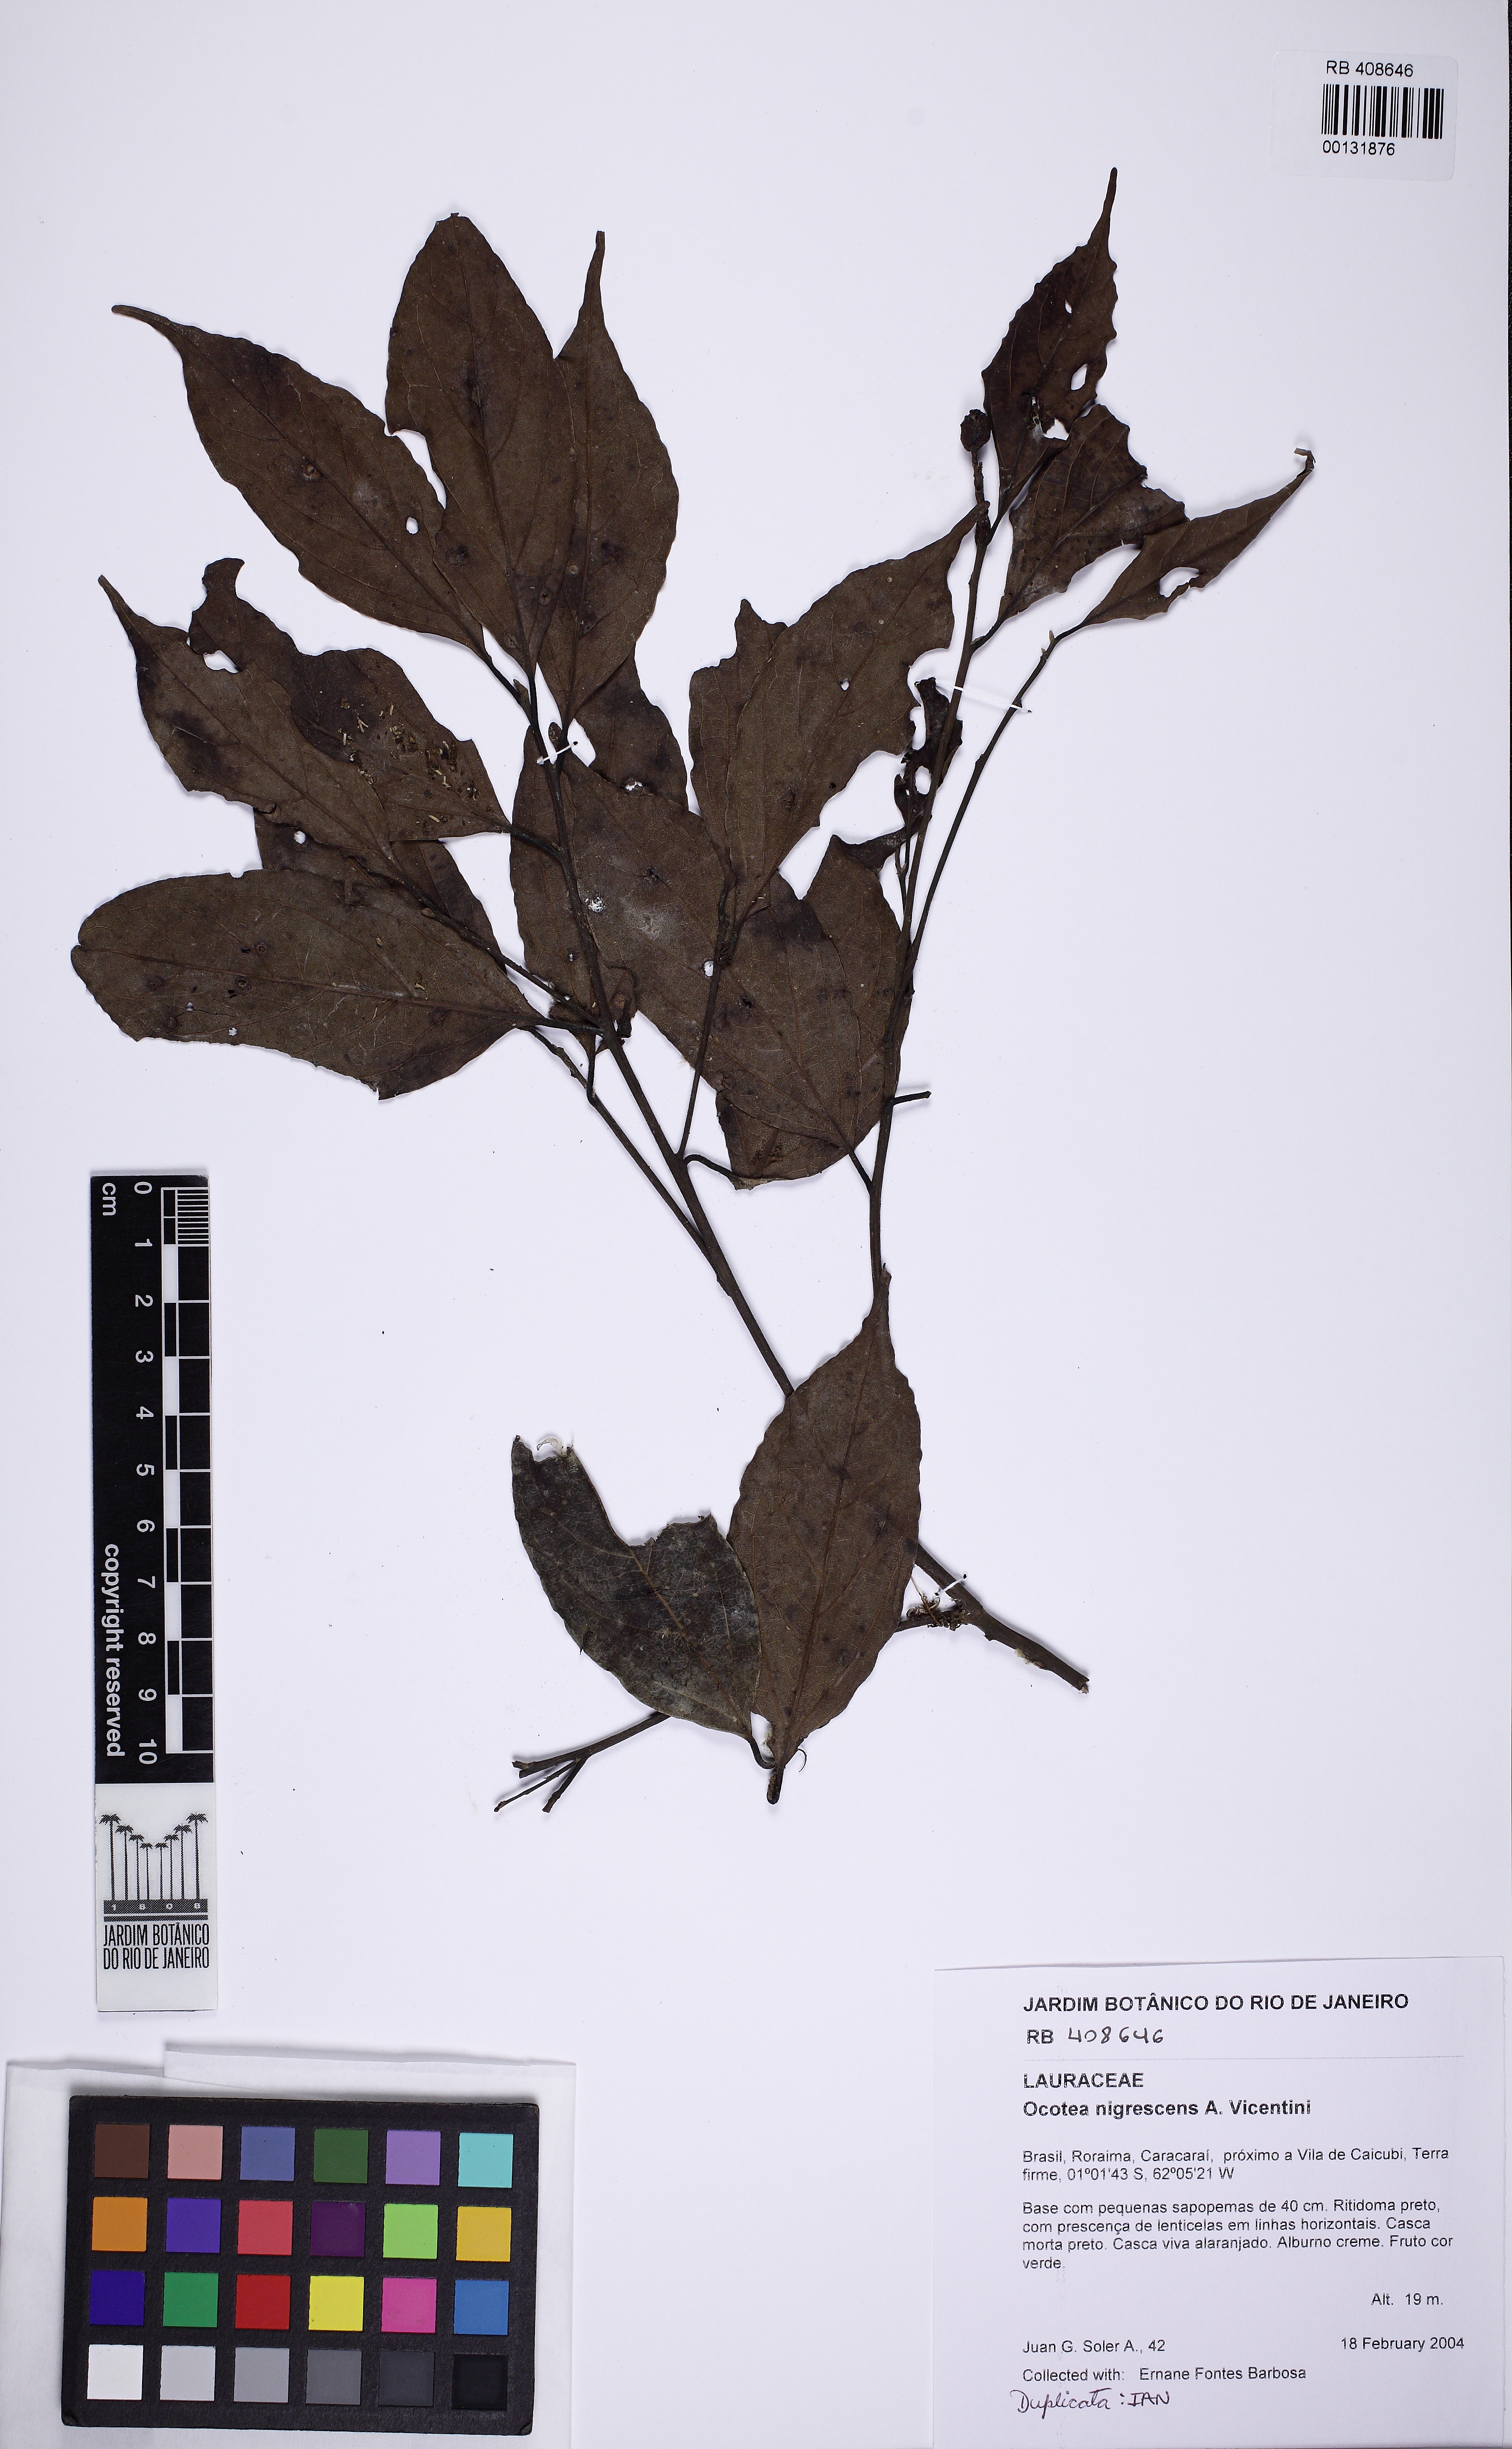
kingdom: Plantae
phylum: Tracheophyta
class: Magnoliopsida
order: Laurales
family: Lauraceae
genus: Ocotea
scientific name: Ocotea nigrescens
